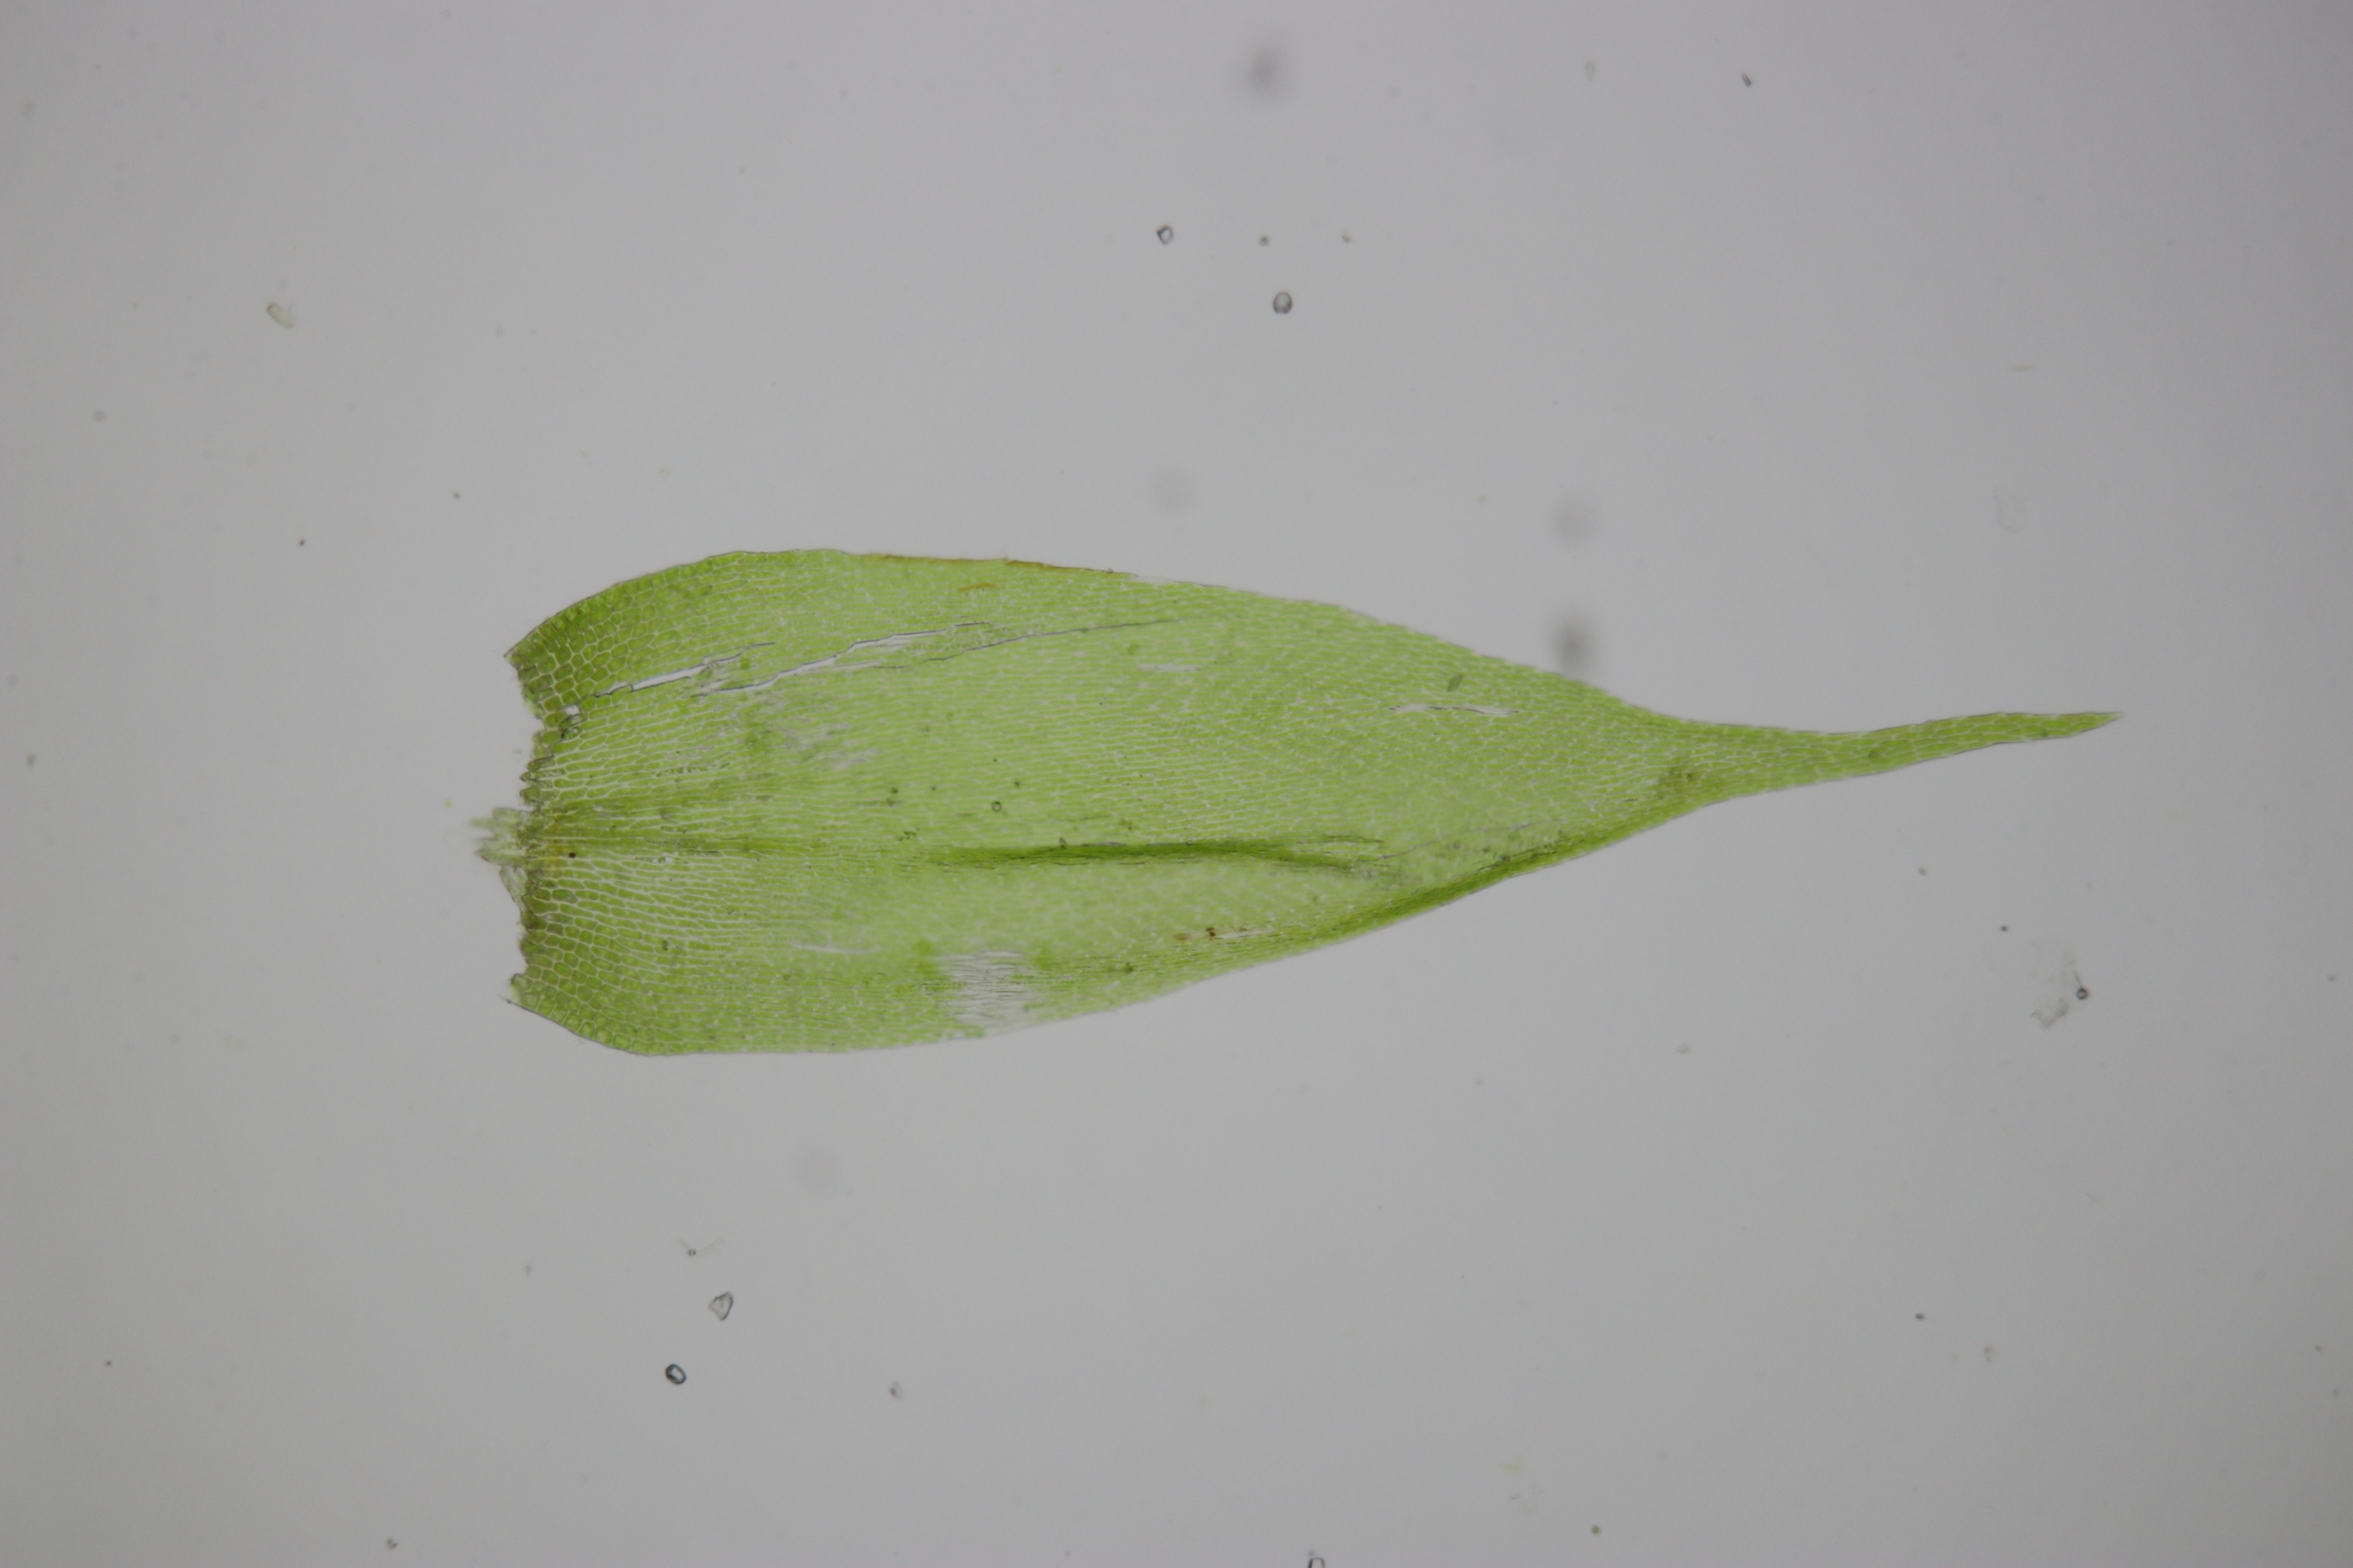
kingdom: Plantae
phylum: Bryophyta
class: Bryopsida
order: Hypnales
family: Pylaisiaceae
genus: Pylaisia
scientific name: Pylaisia polyantha
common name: Mangefrugtet aspemos
